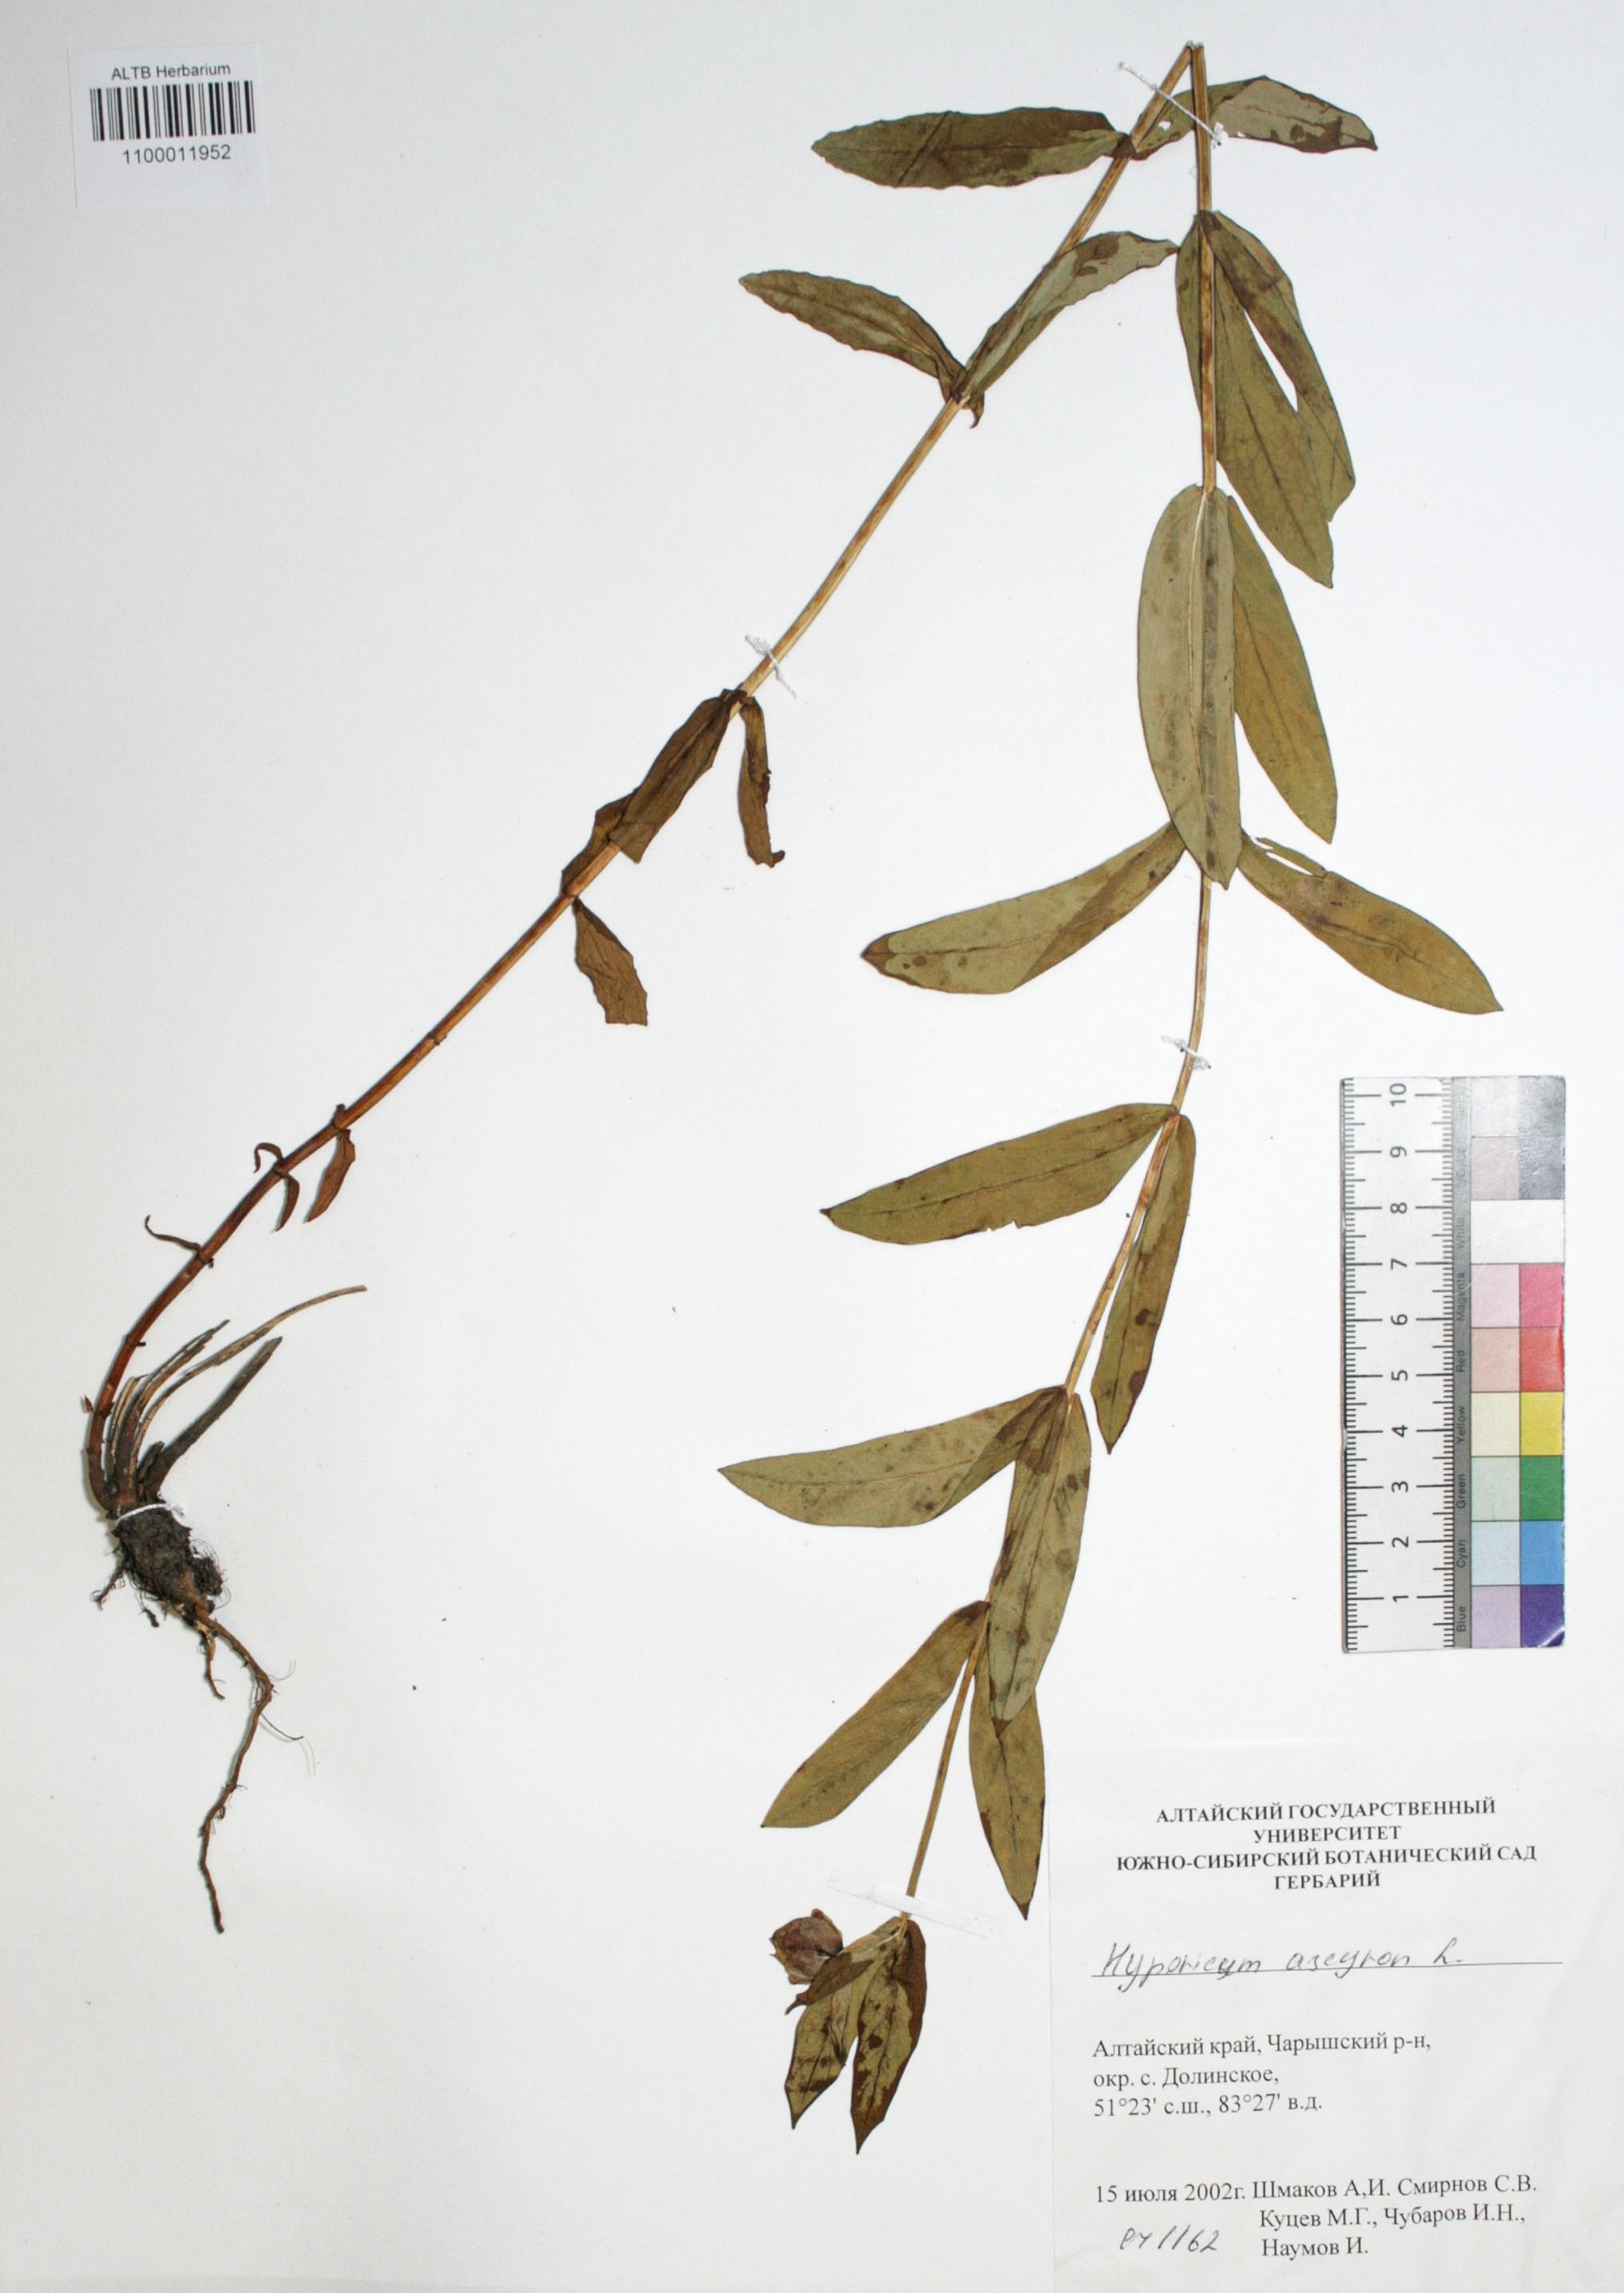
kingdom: Plantae
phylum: Tracheophyta
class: Magnoliopsida
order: Malpighiales
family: Hypericaceae
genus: Hypericum
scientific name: Hypericum ascyron
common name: Giant st. john's-wort
